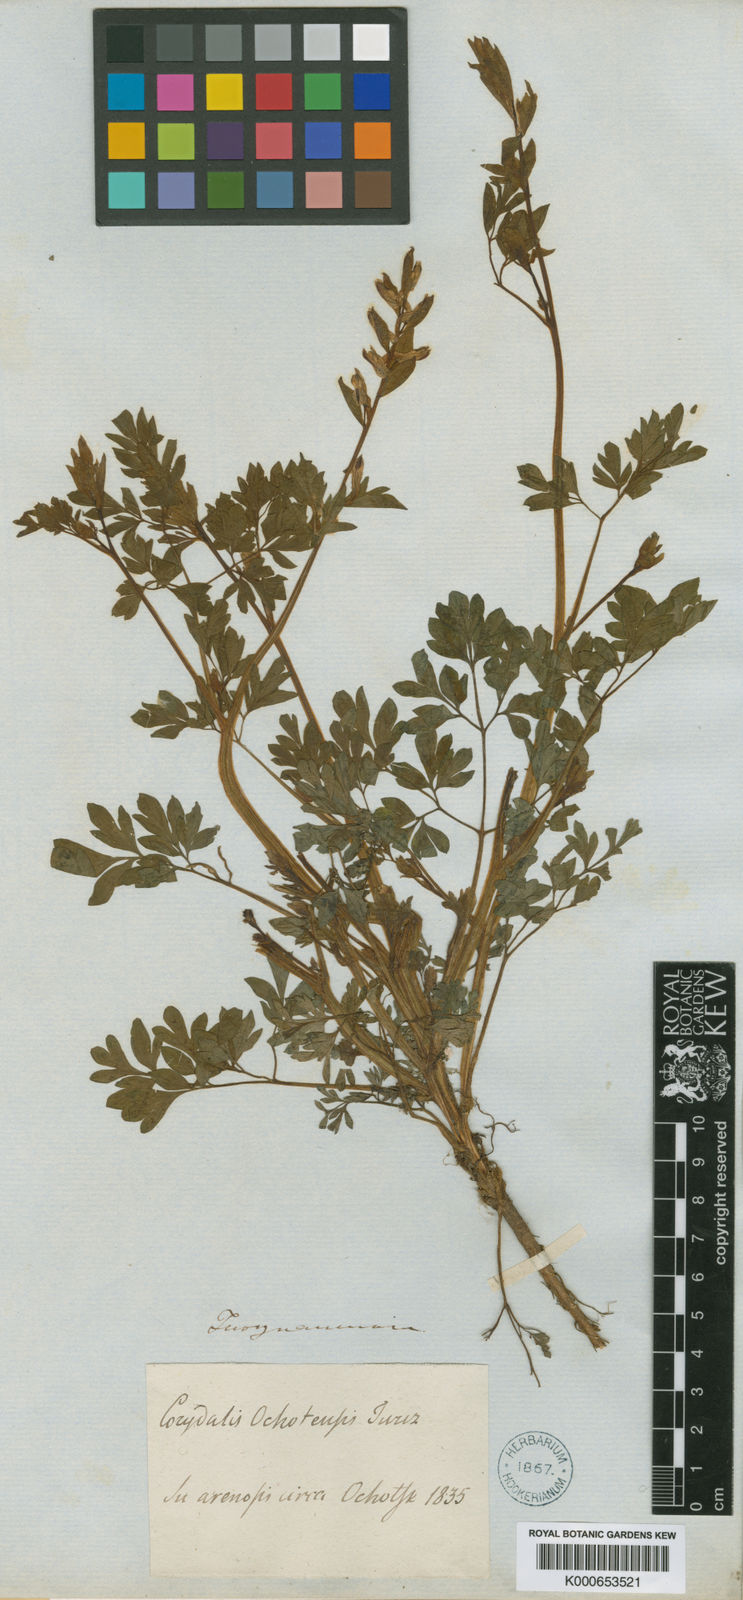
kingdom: Plantae
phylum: Tracheophyta
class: Magnoliopsida
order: Ranunculales
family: Papaveraceae
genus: Corydalis
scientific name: Corydalis ochotensis
